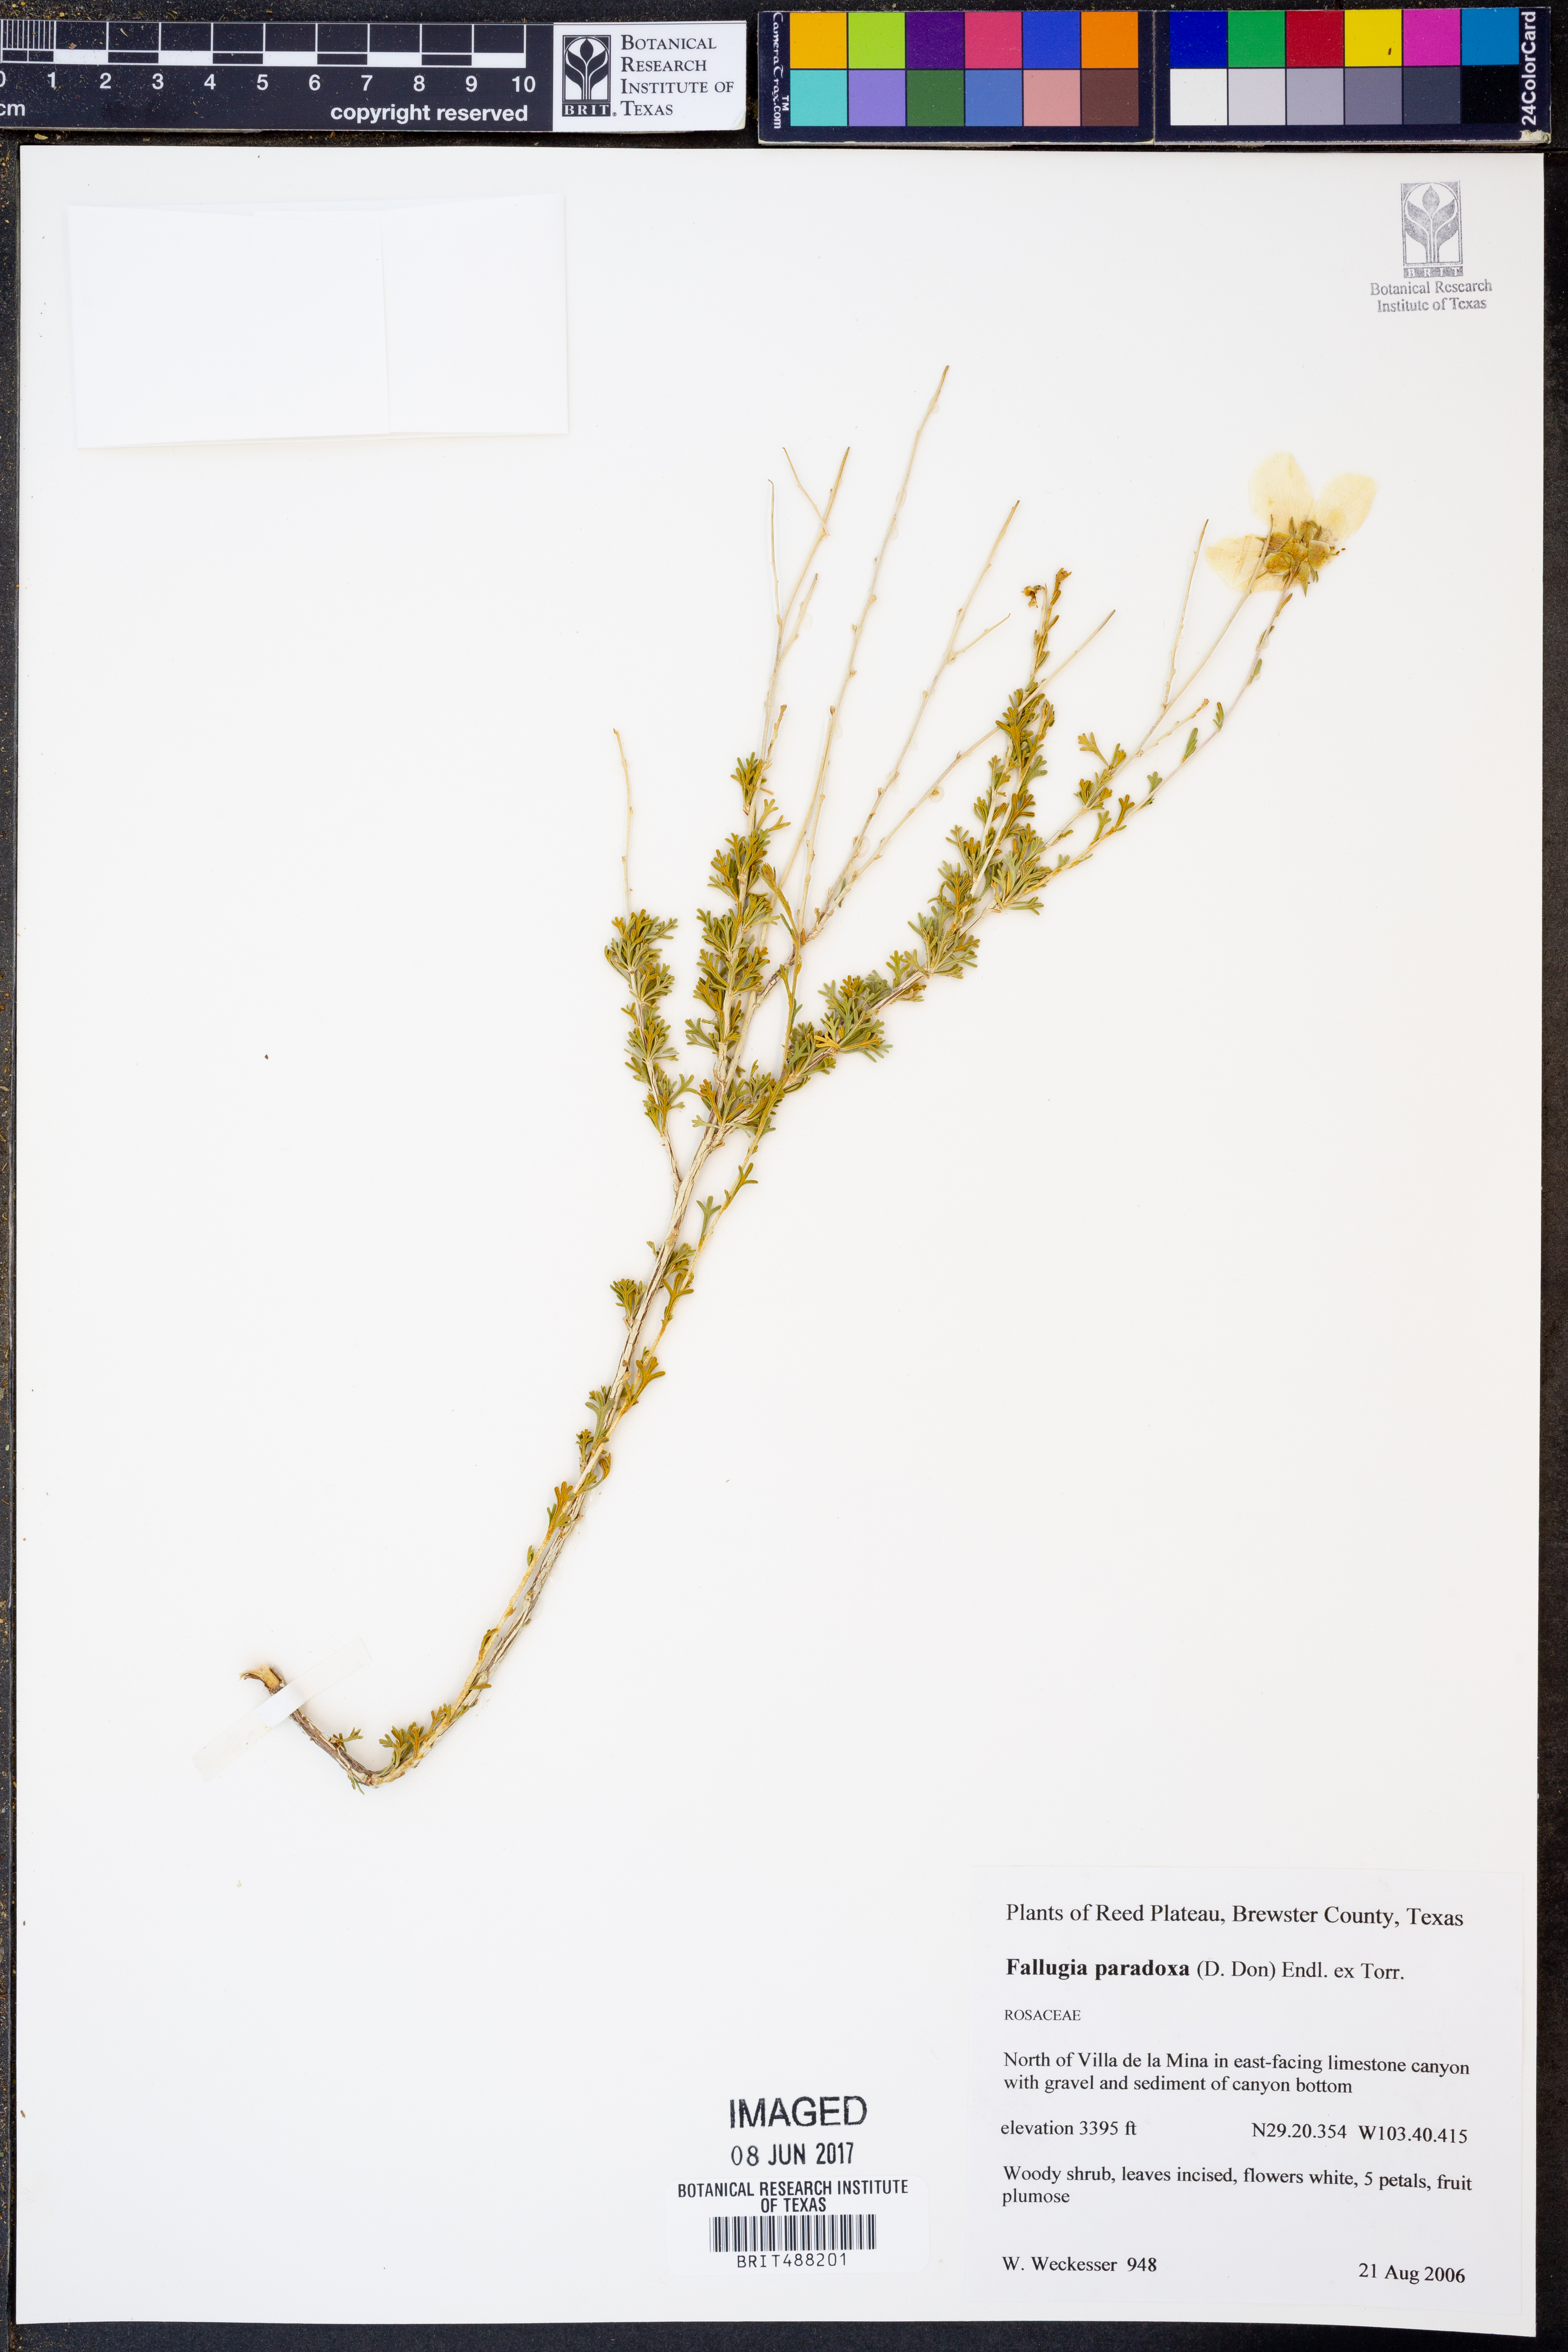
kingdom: Plantae
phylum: Tracheophyta
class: Magnoliopsida
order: Rosales
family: Rosaceae
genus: Fallugia
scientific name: Fallugia paradoxa
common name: Apache-plume
